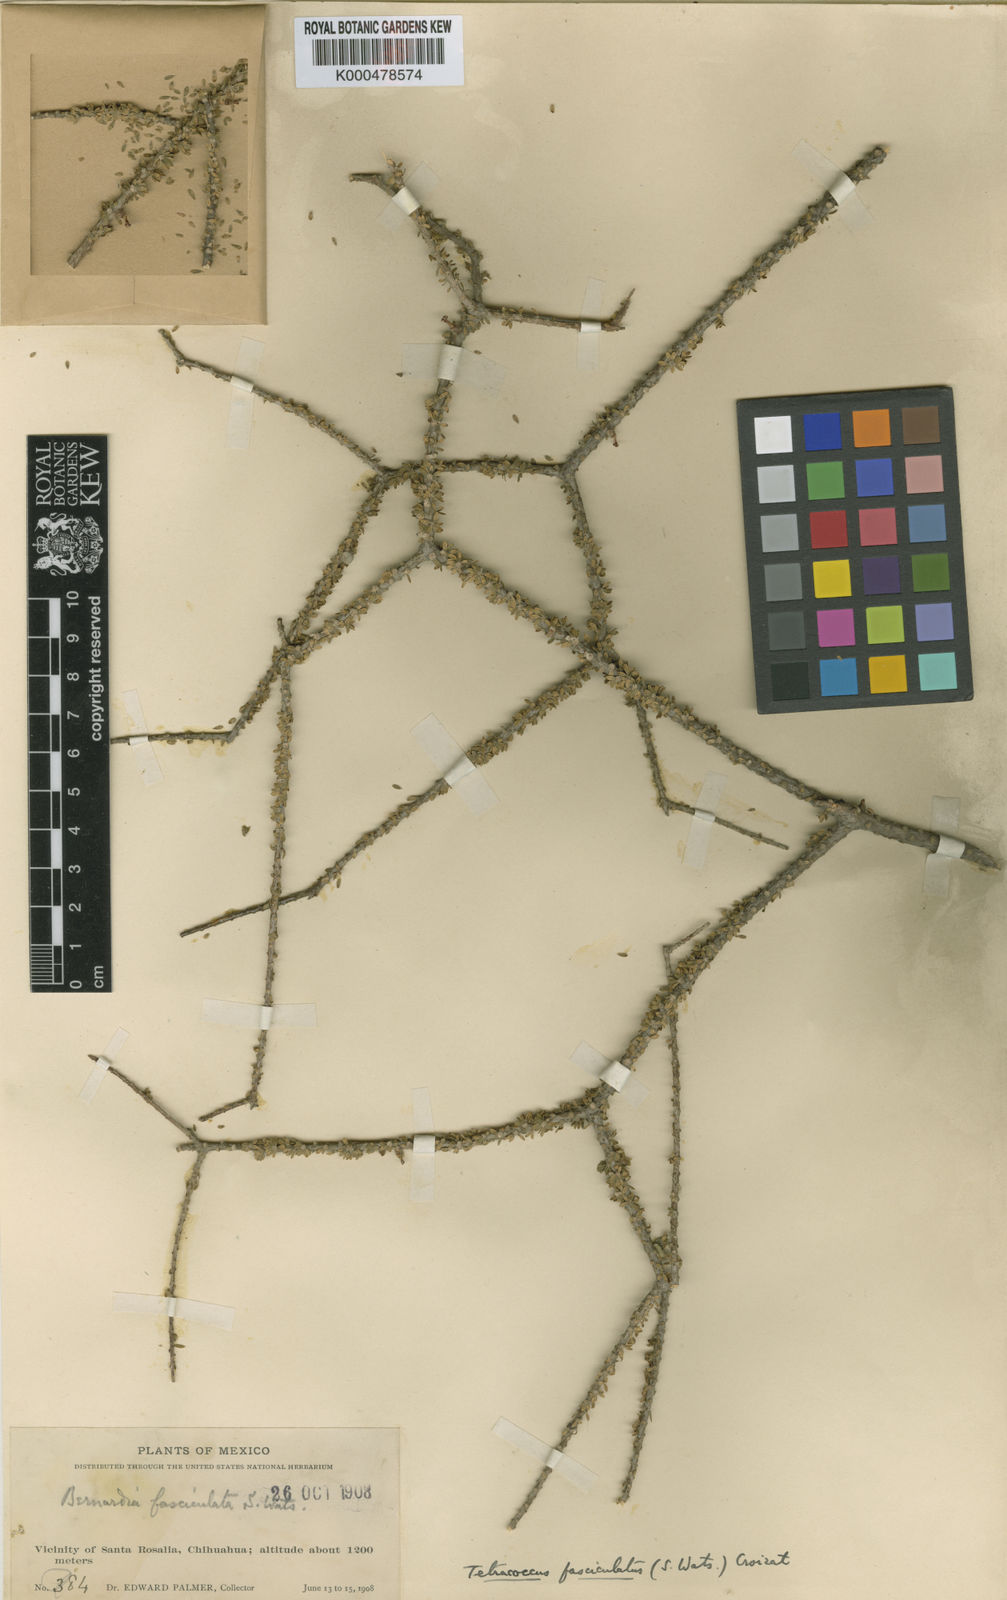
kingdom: Plantae
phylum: Tracheophyta
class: Magnoliopsida
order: Malpighiales
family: Picrodendraceae
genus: Tetracoccus
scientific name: Tetracoccus fasciculatus
